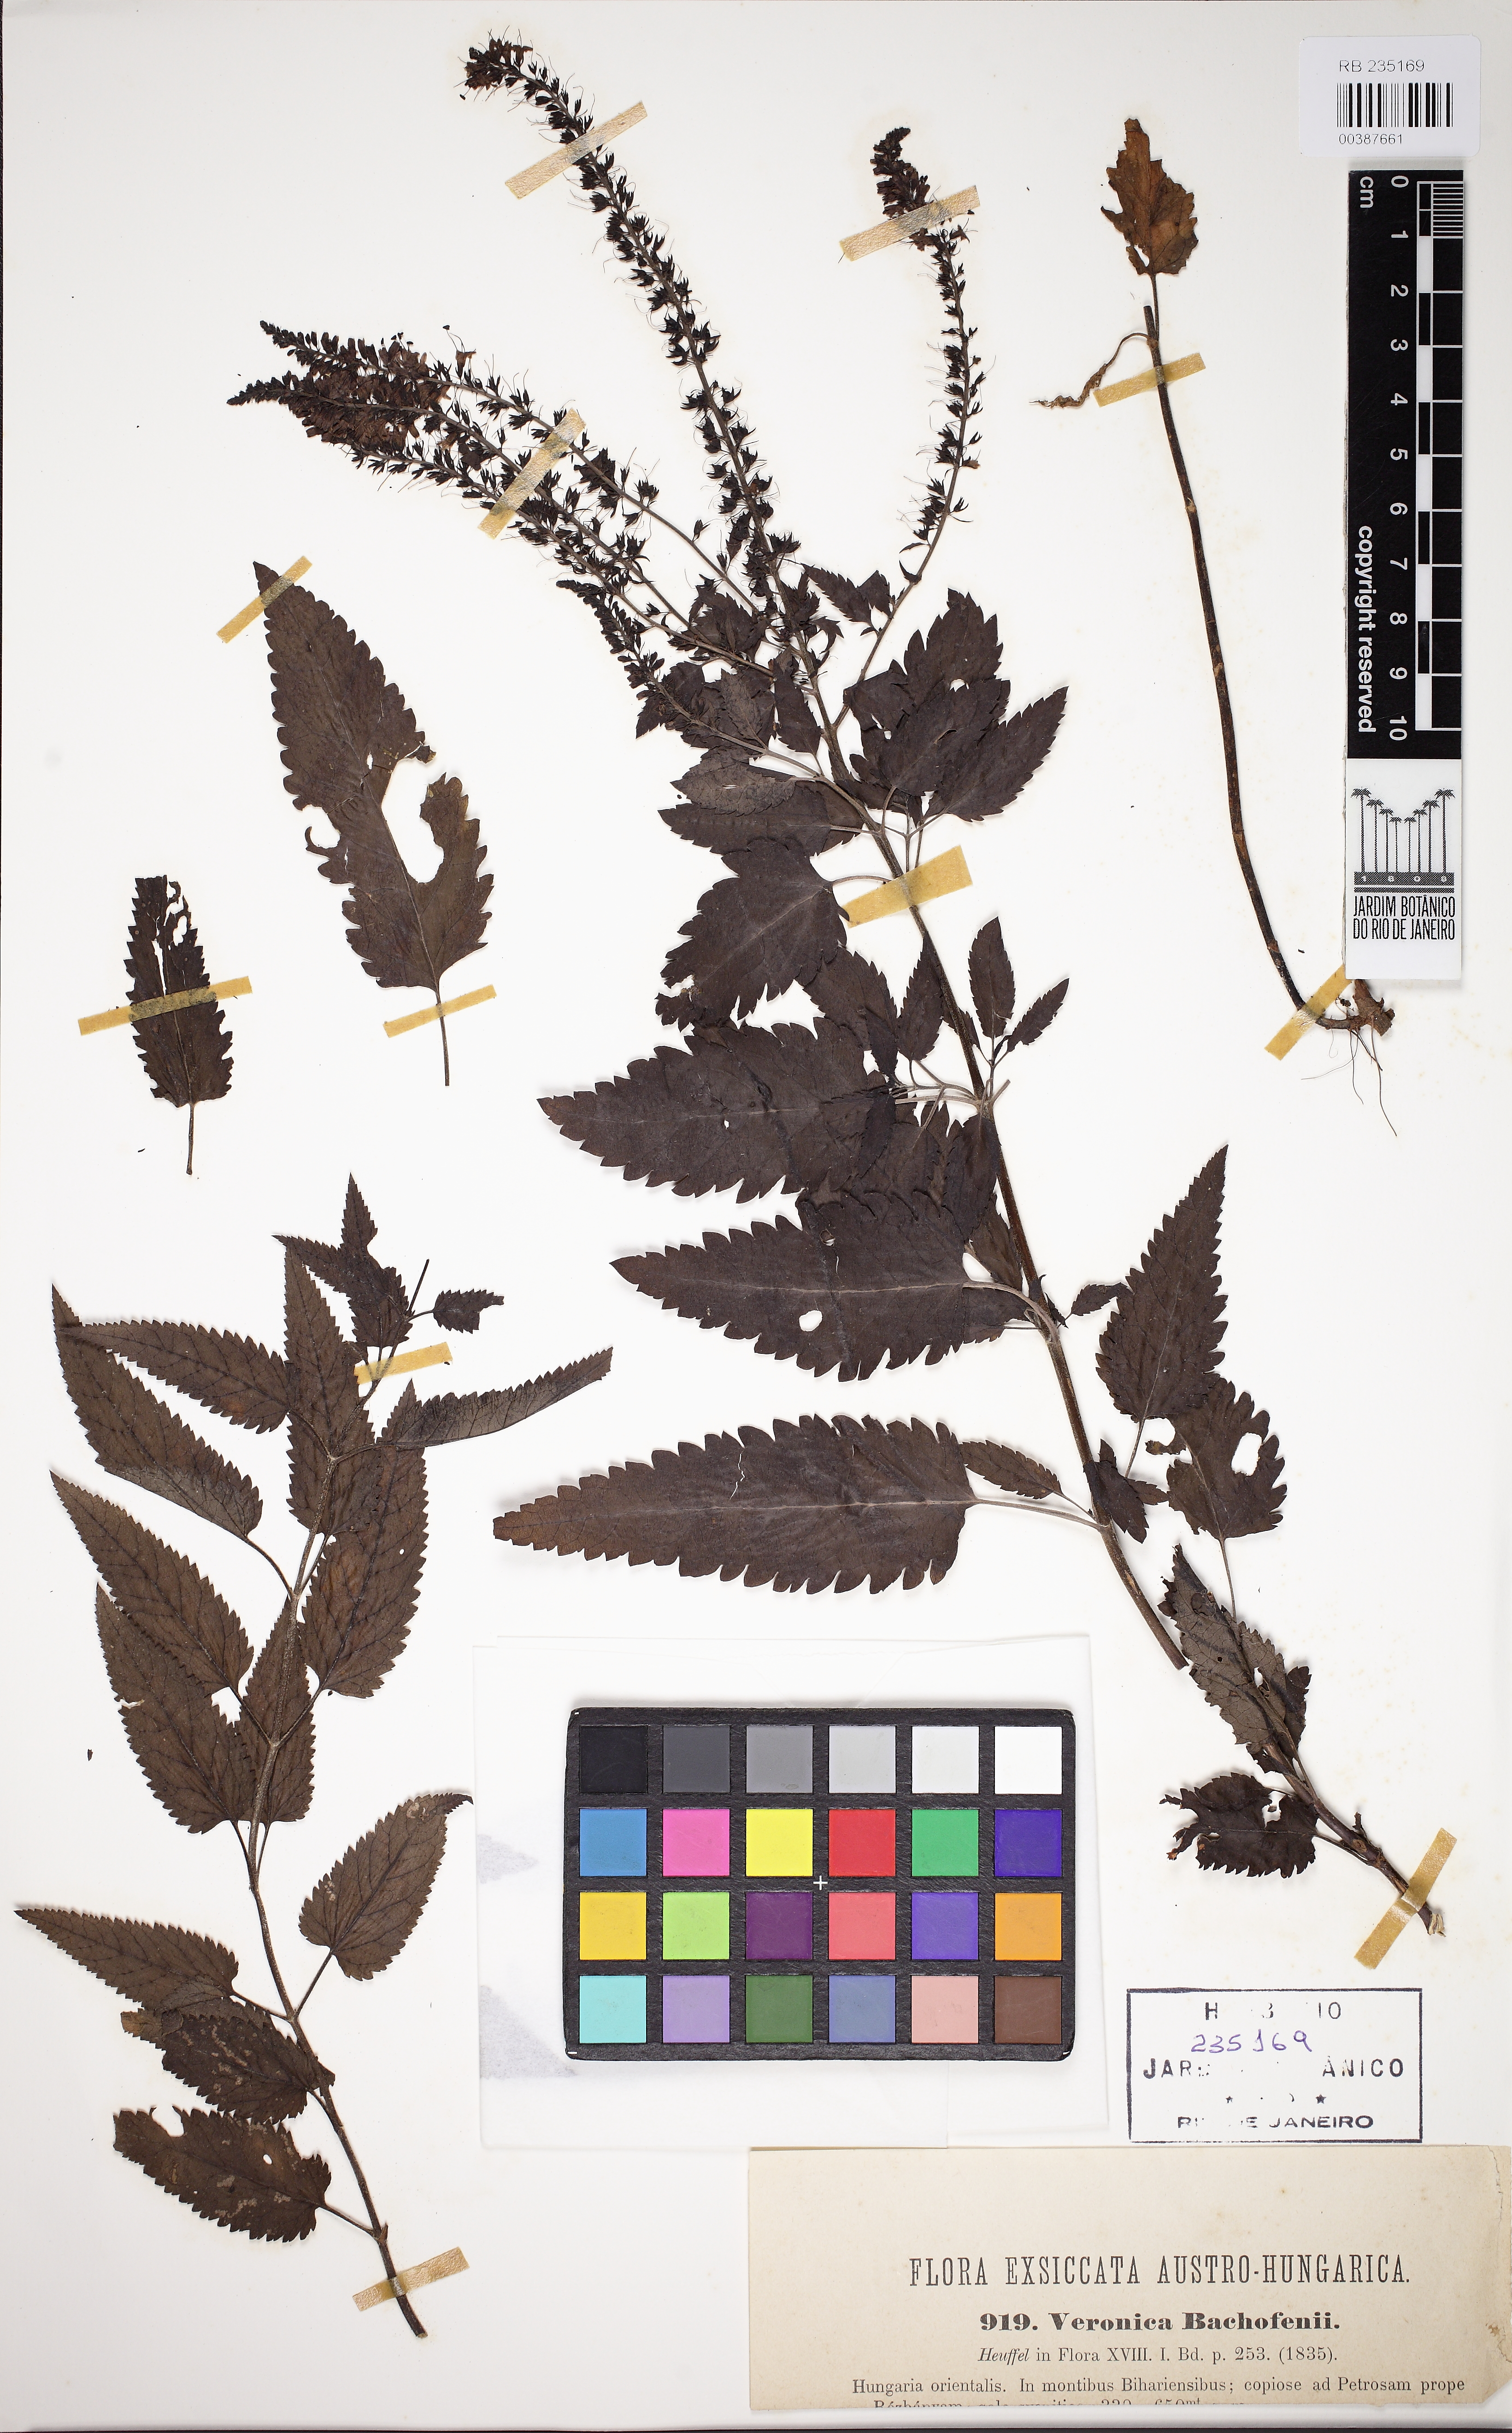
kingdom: Plantae
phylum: Tracheophyta
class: Magnoliopsida
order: Lamiales
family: Plantaginaceae
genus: Veronica
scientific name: Veronica bachofenii
